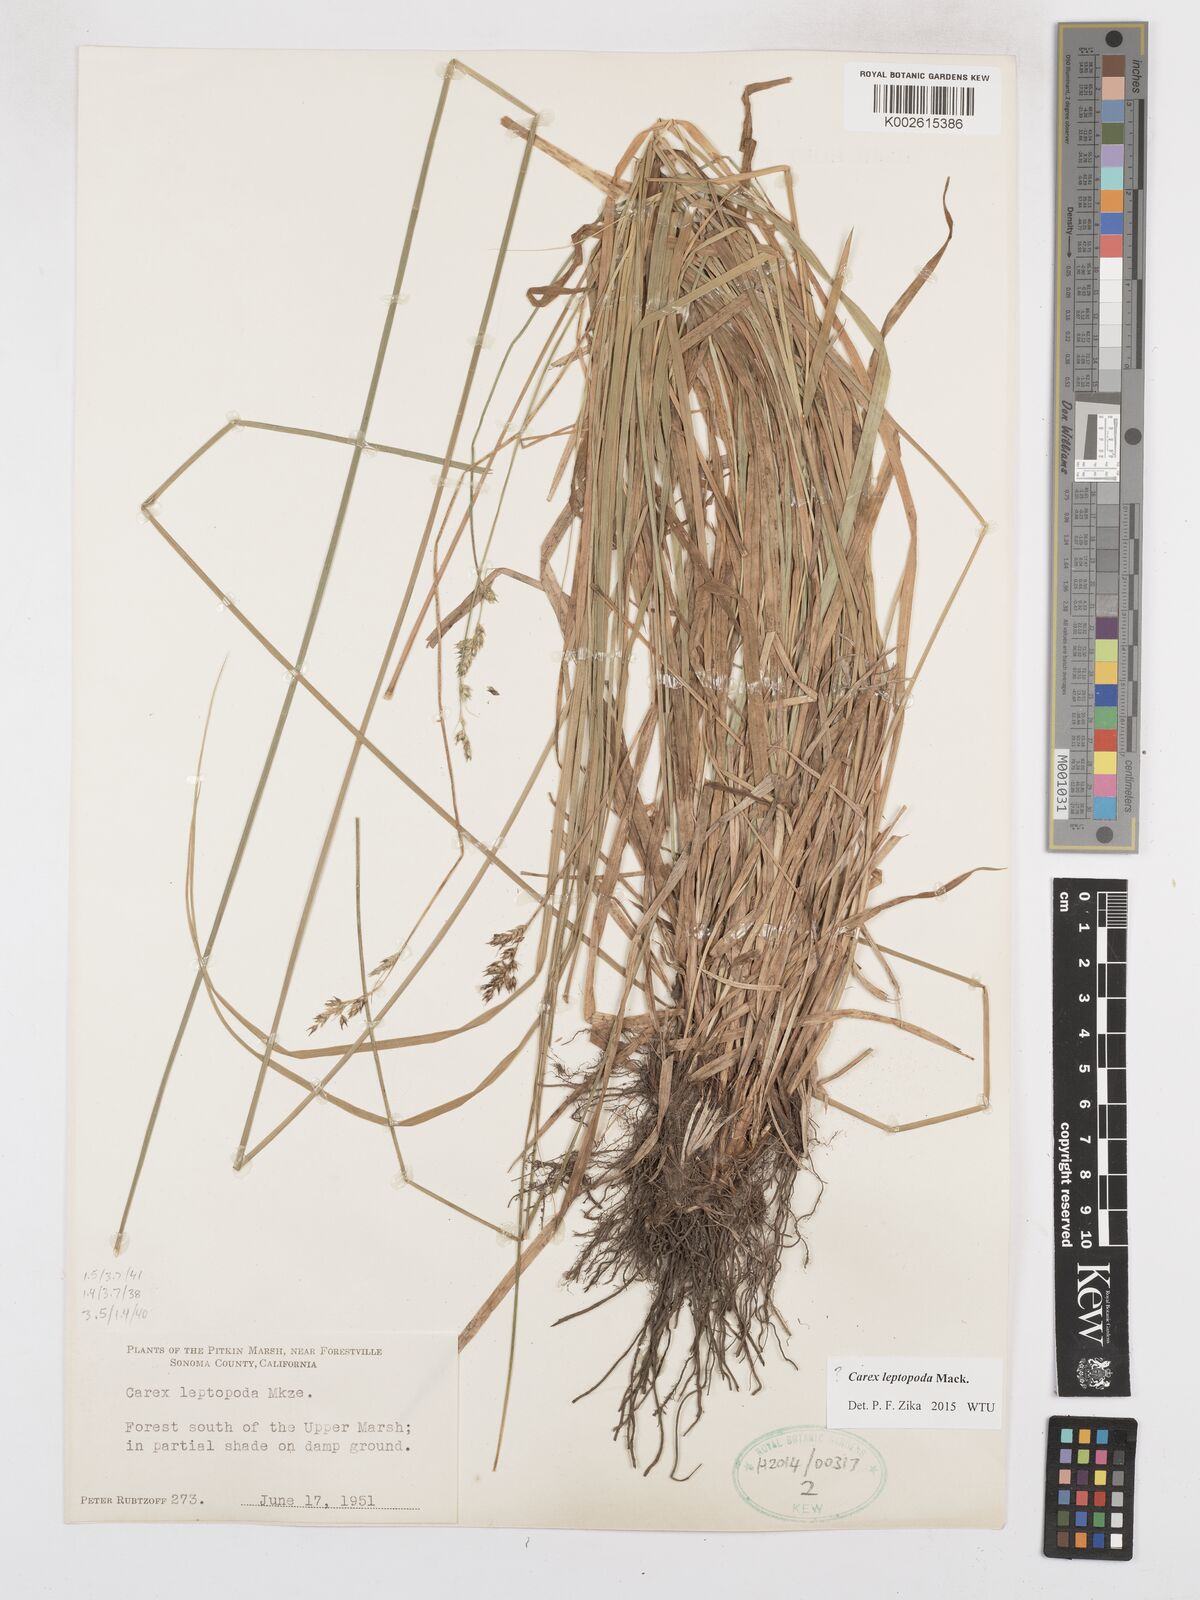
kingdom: Plantae
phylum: Tracheophyta
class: Liliopsida
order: Poales
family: Cyperaceae
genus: Carex
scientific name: Carex leptopoda
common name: Short-scale sedge
